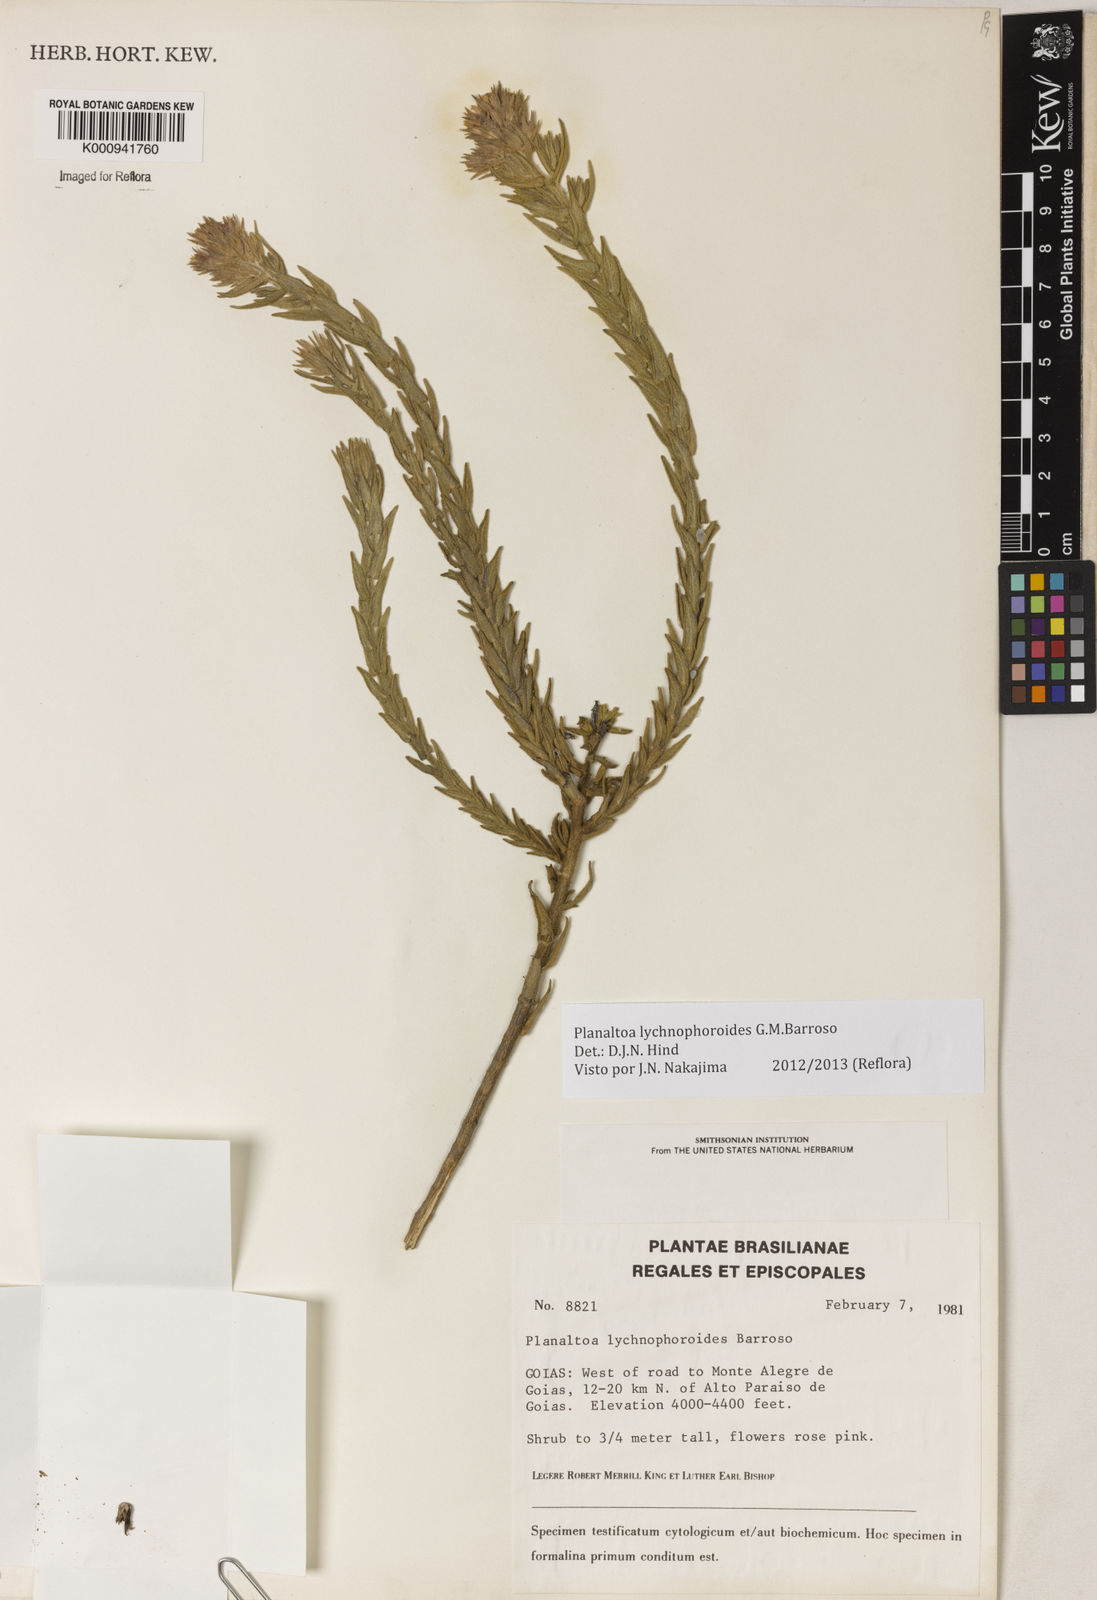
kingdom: Plantae
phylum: Tracheophyta
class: Magnoliopsida
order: Asterales
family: Asteraceae
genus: Planaltoa
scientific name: Planaltoa lychnophoroides
